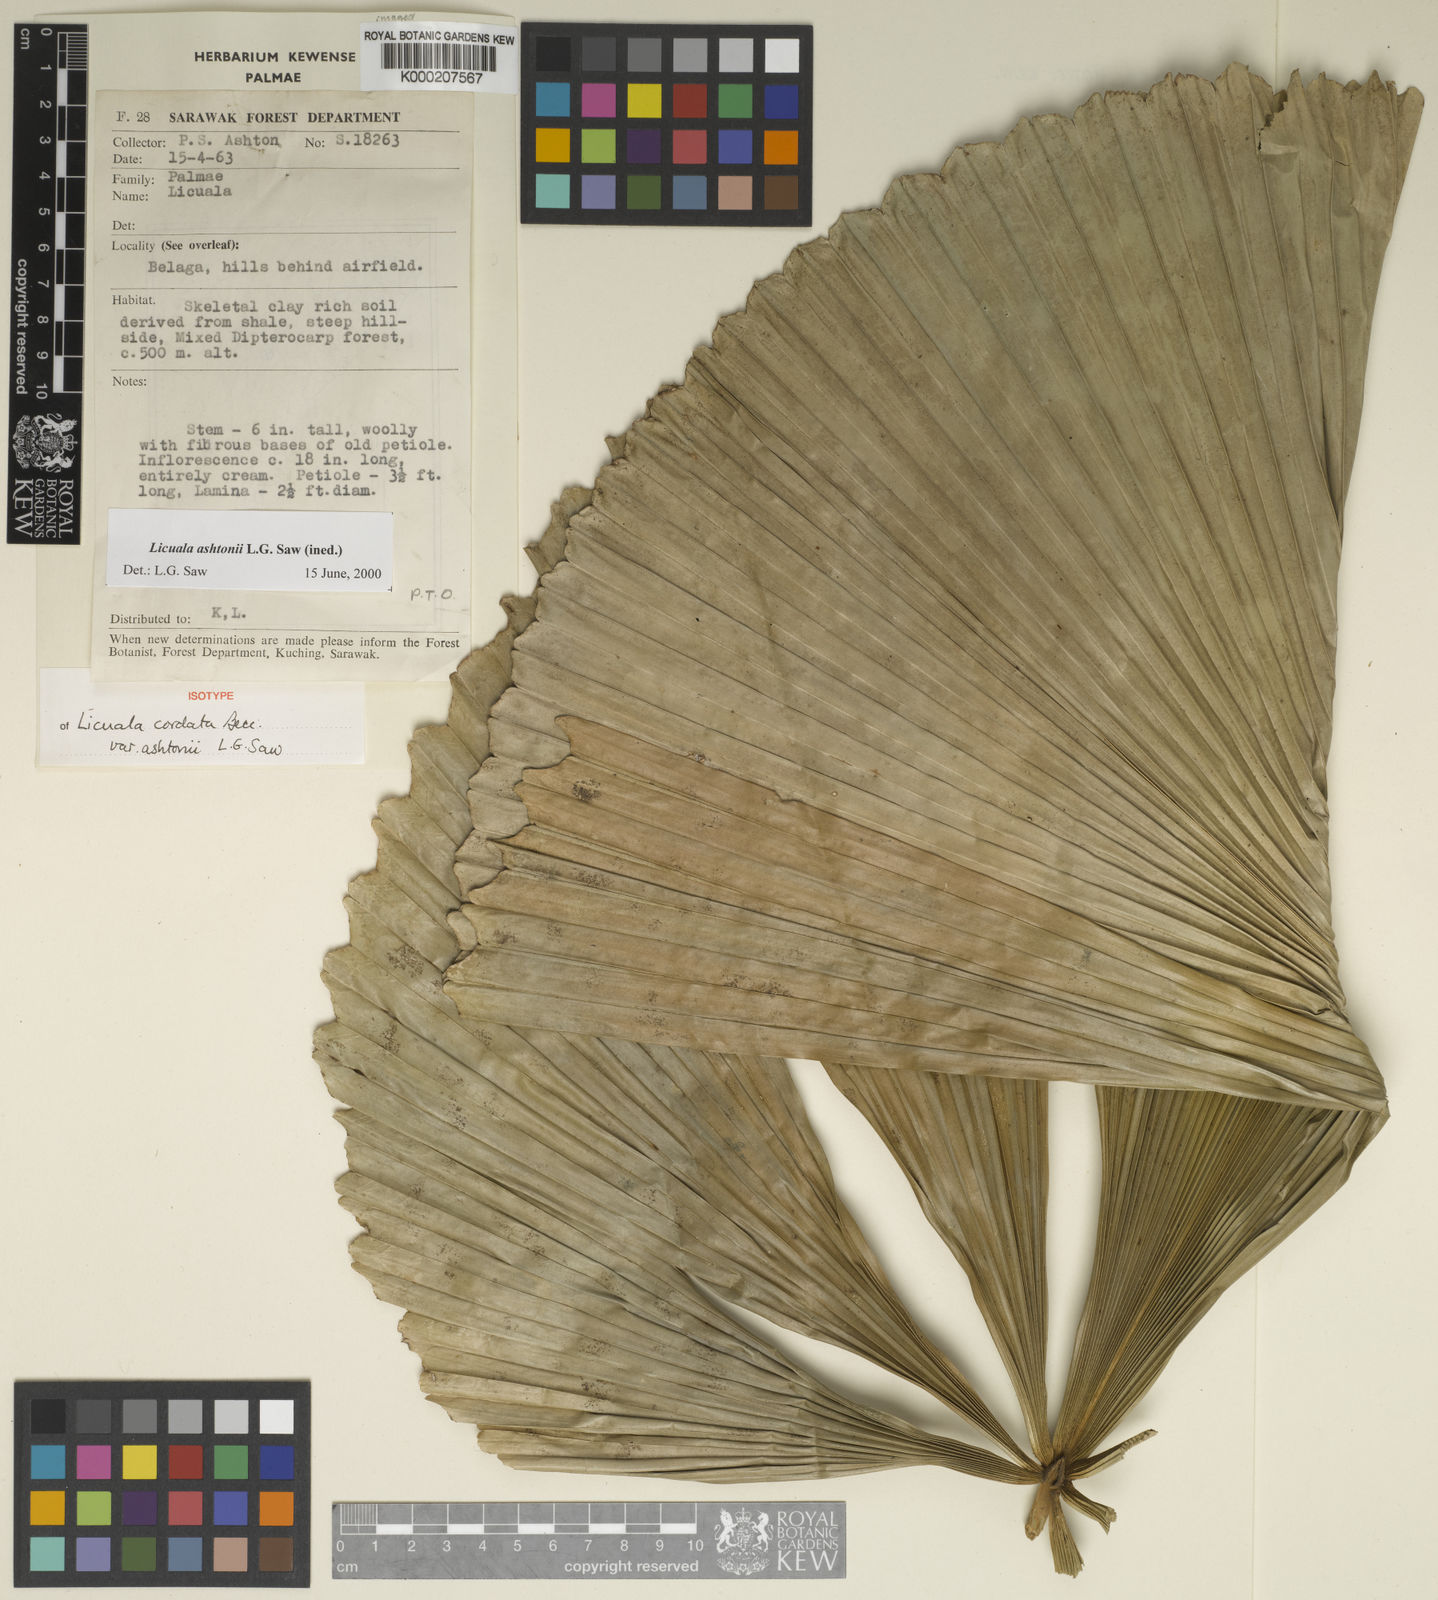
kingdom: Plantae
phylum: Tracheophyta
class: Liliopsida
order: Arecales
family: Arecaceae
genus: Licuala
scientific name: Licuala cordata
